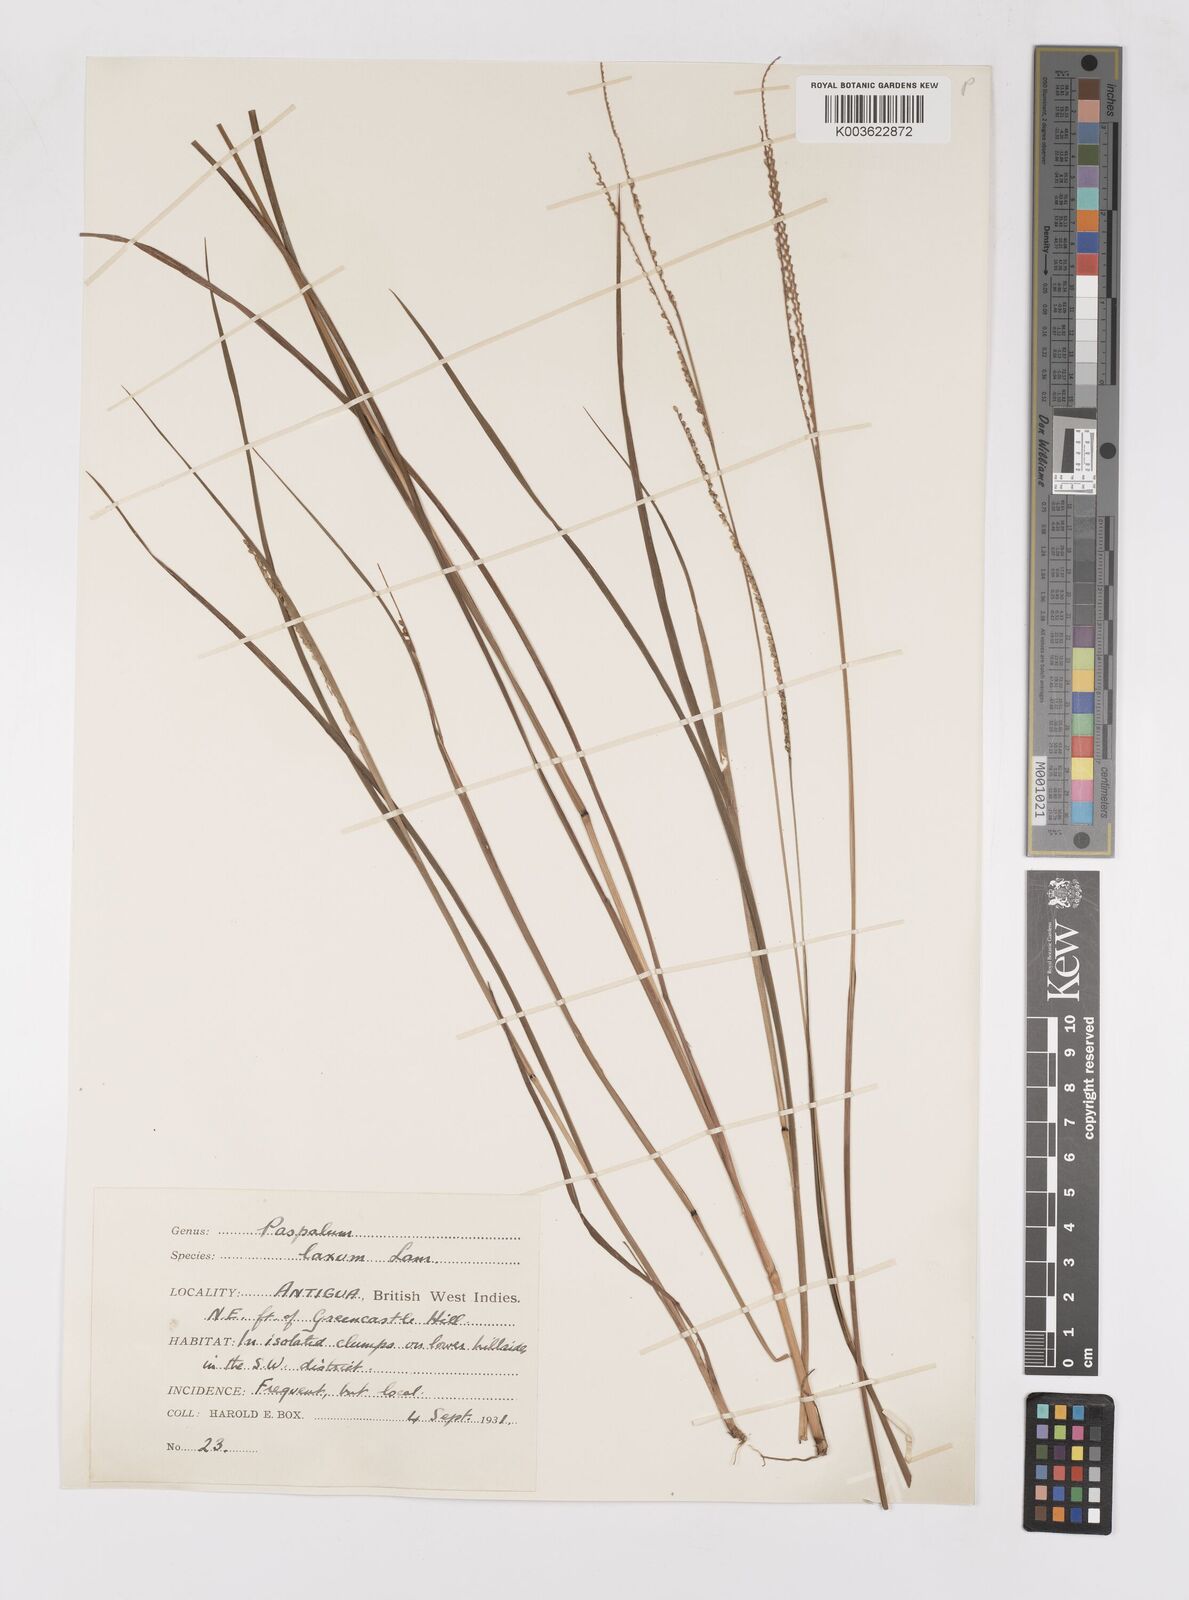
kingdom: Plantae
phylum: Tracheophyta
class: Liliopsida
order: Poales
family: Poaceae
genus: Paspalum
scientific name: Paspalum laxum
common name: Coconut paspalum
